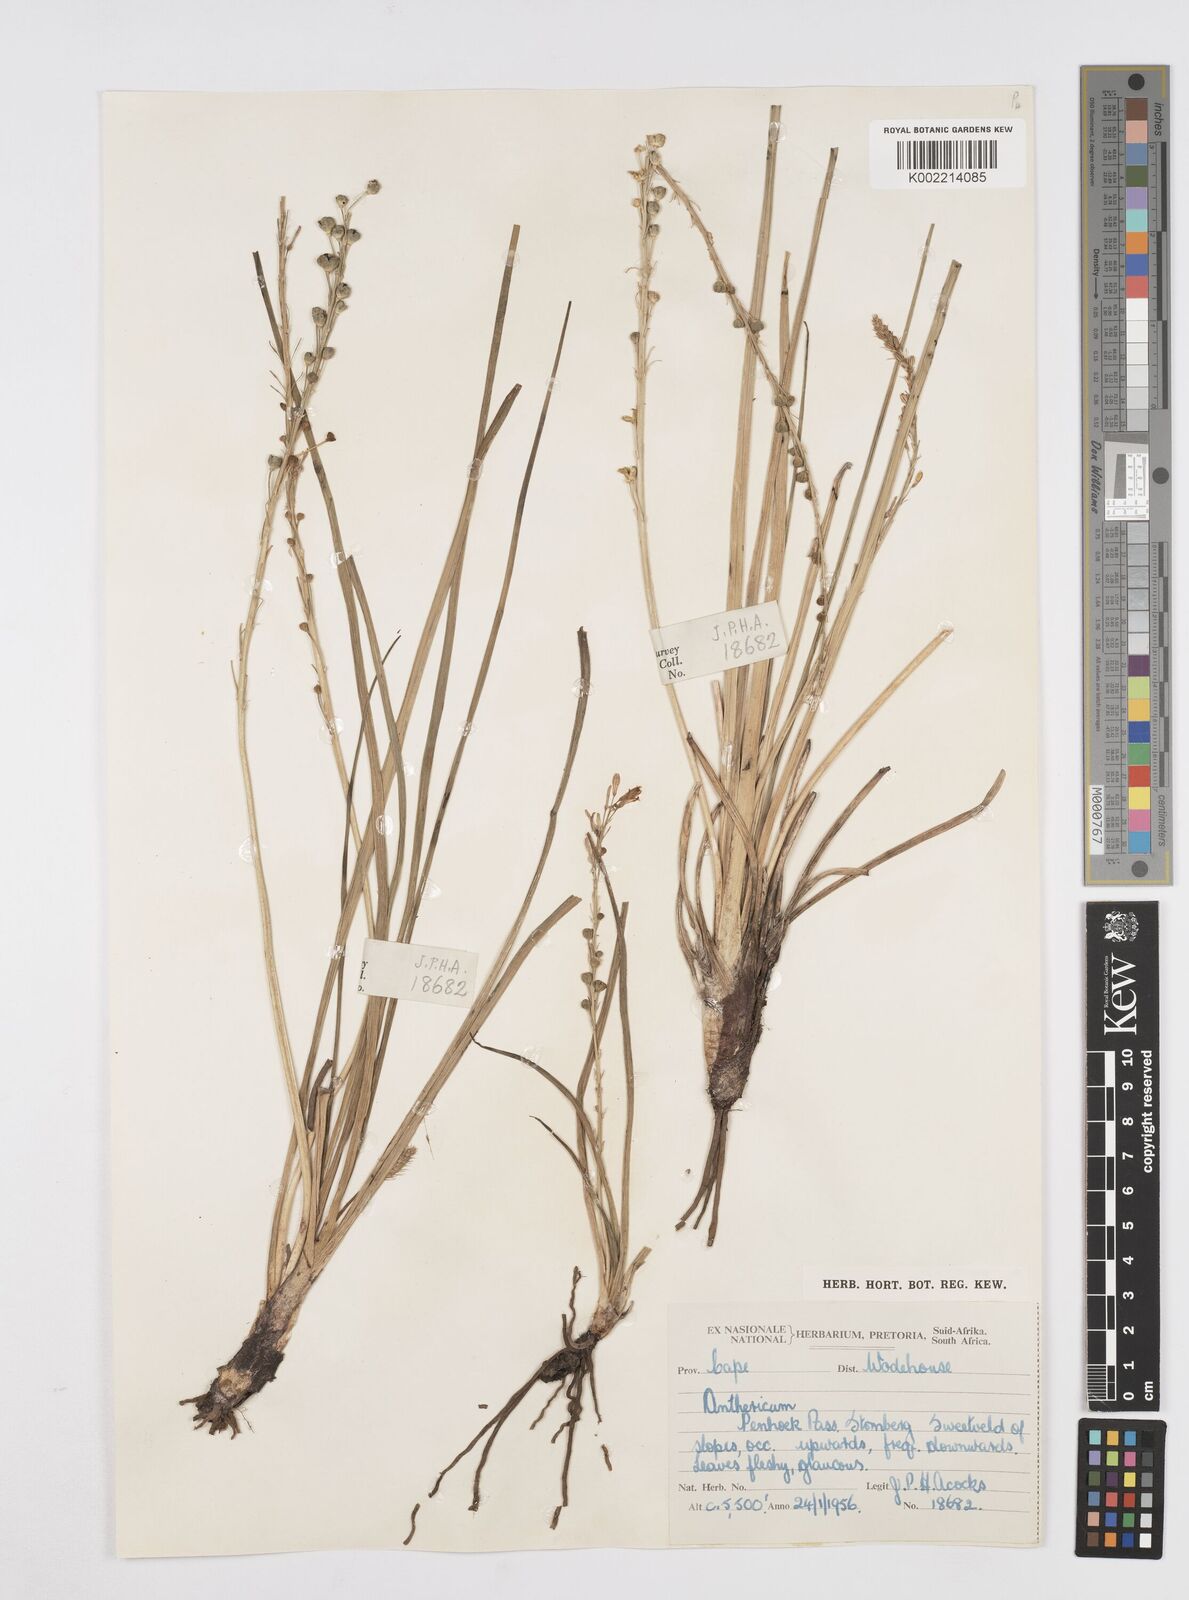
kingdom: Plantae
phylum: Tracheophyta
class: Liliopsida
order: Asparagales
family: Asphodelaceae
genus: Trachyandra
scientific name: Trachyandra
